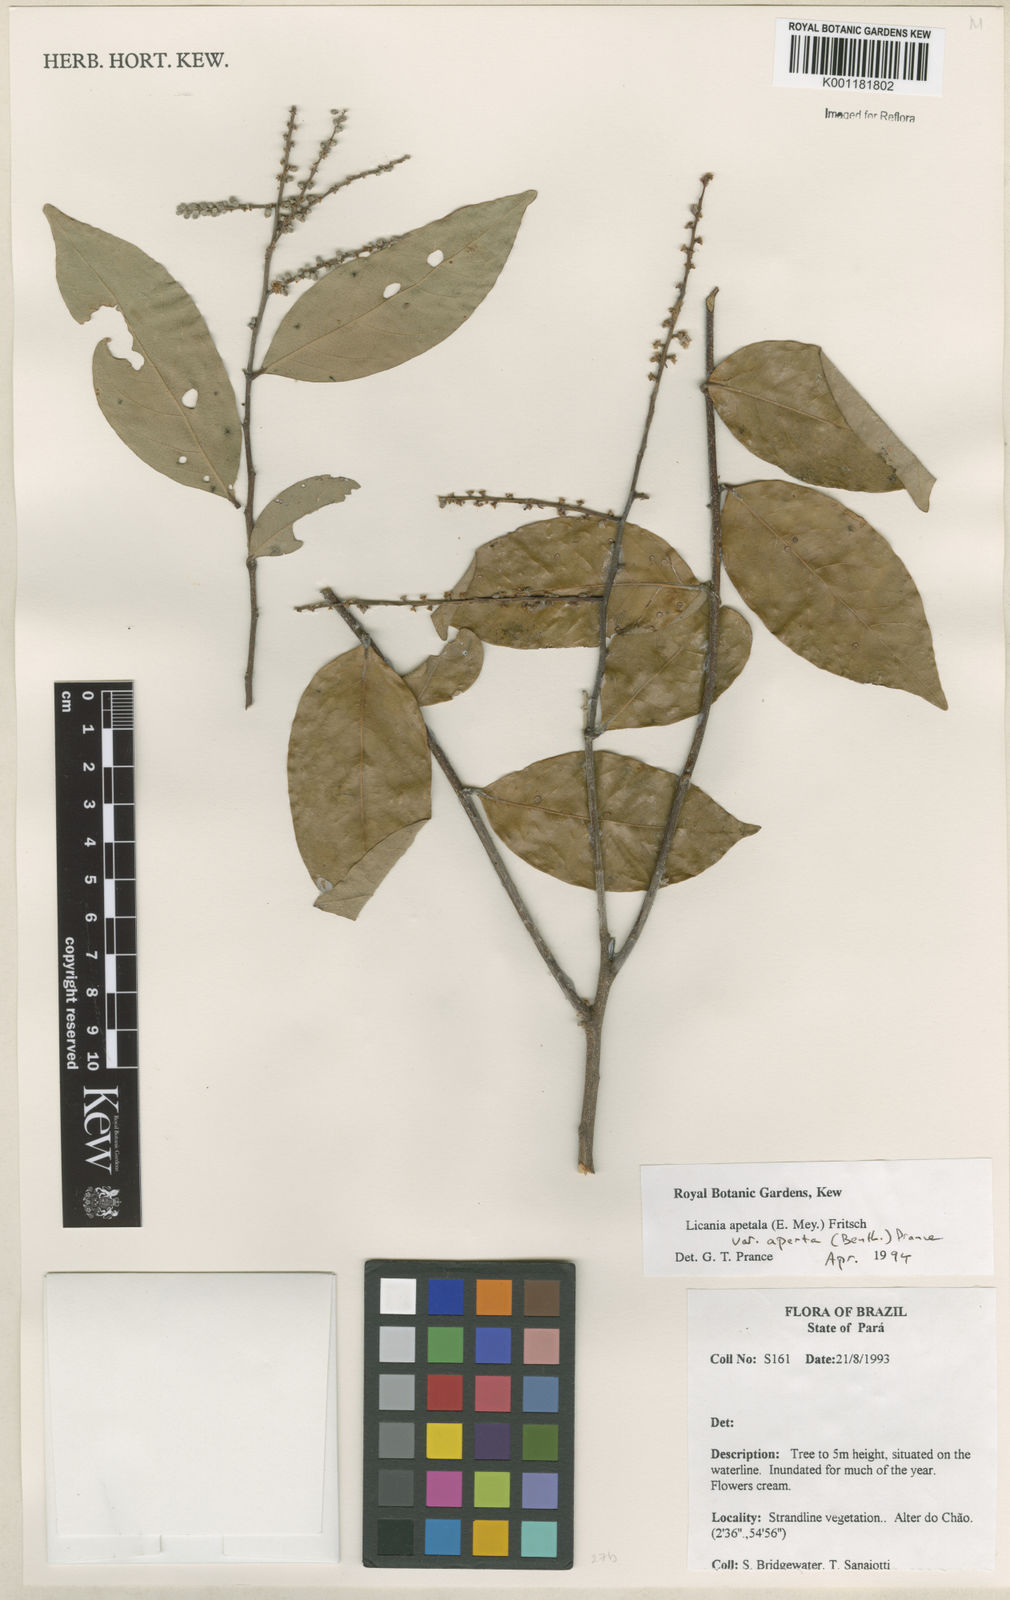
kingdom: Plantae
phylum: Tracheophyta
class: Magnoliopsida
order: Malpighiales
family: Chrysobalanaceae
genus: Leptobalanus
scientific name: Leptobalanus apetalus
